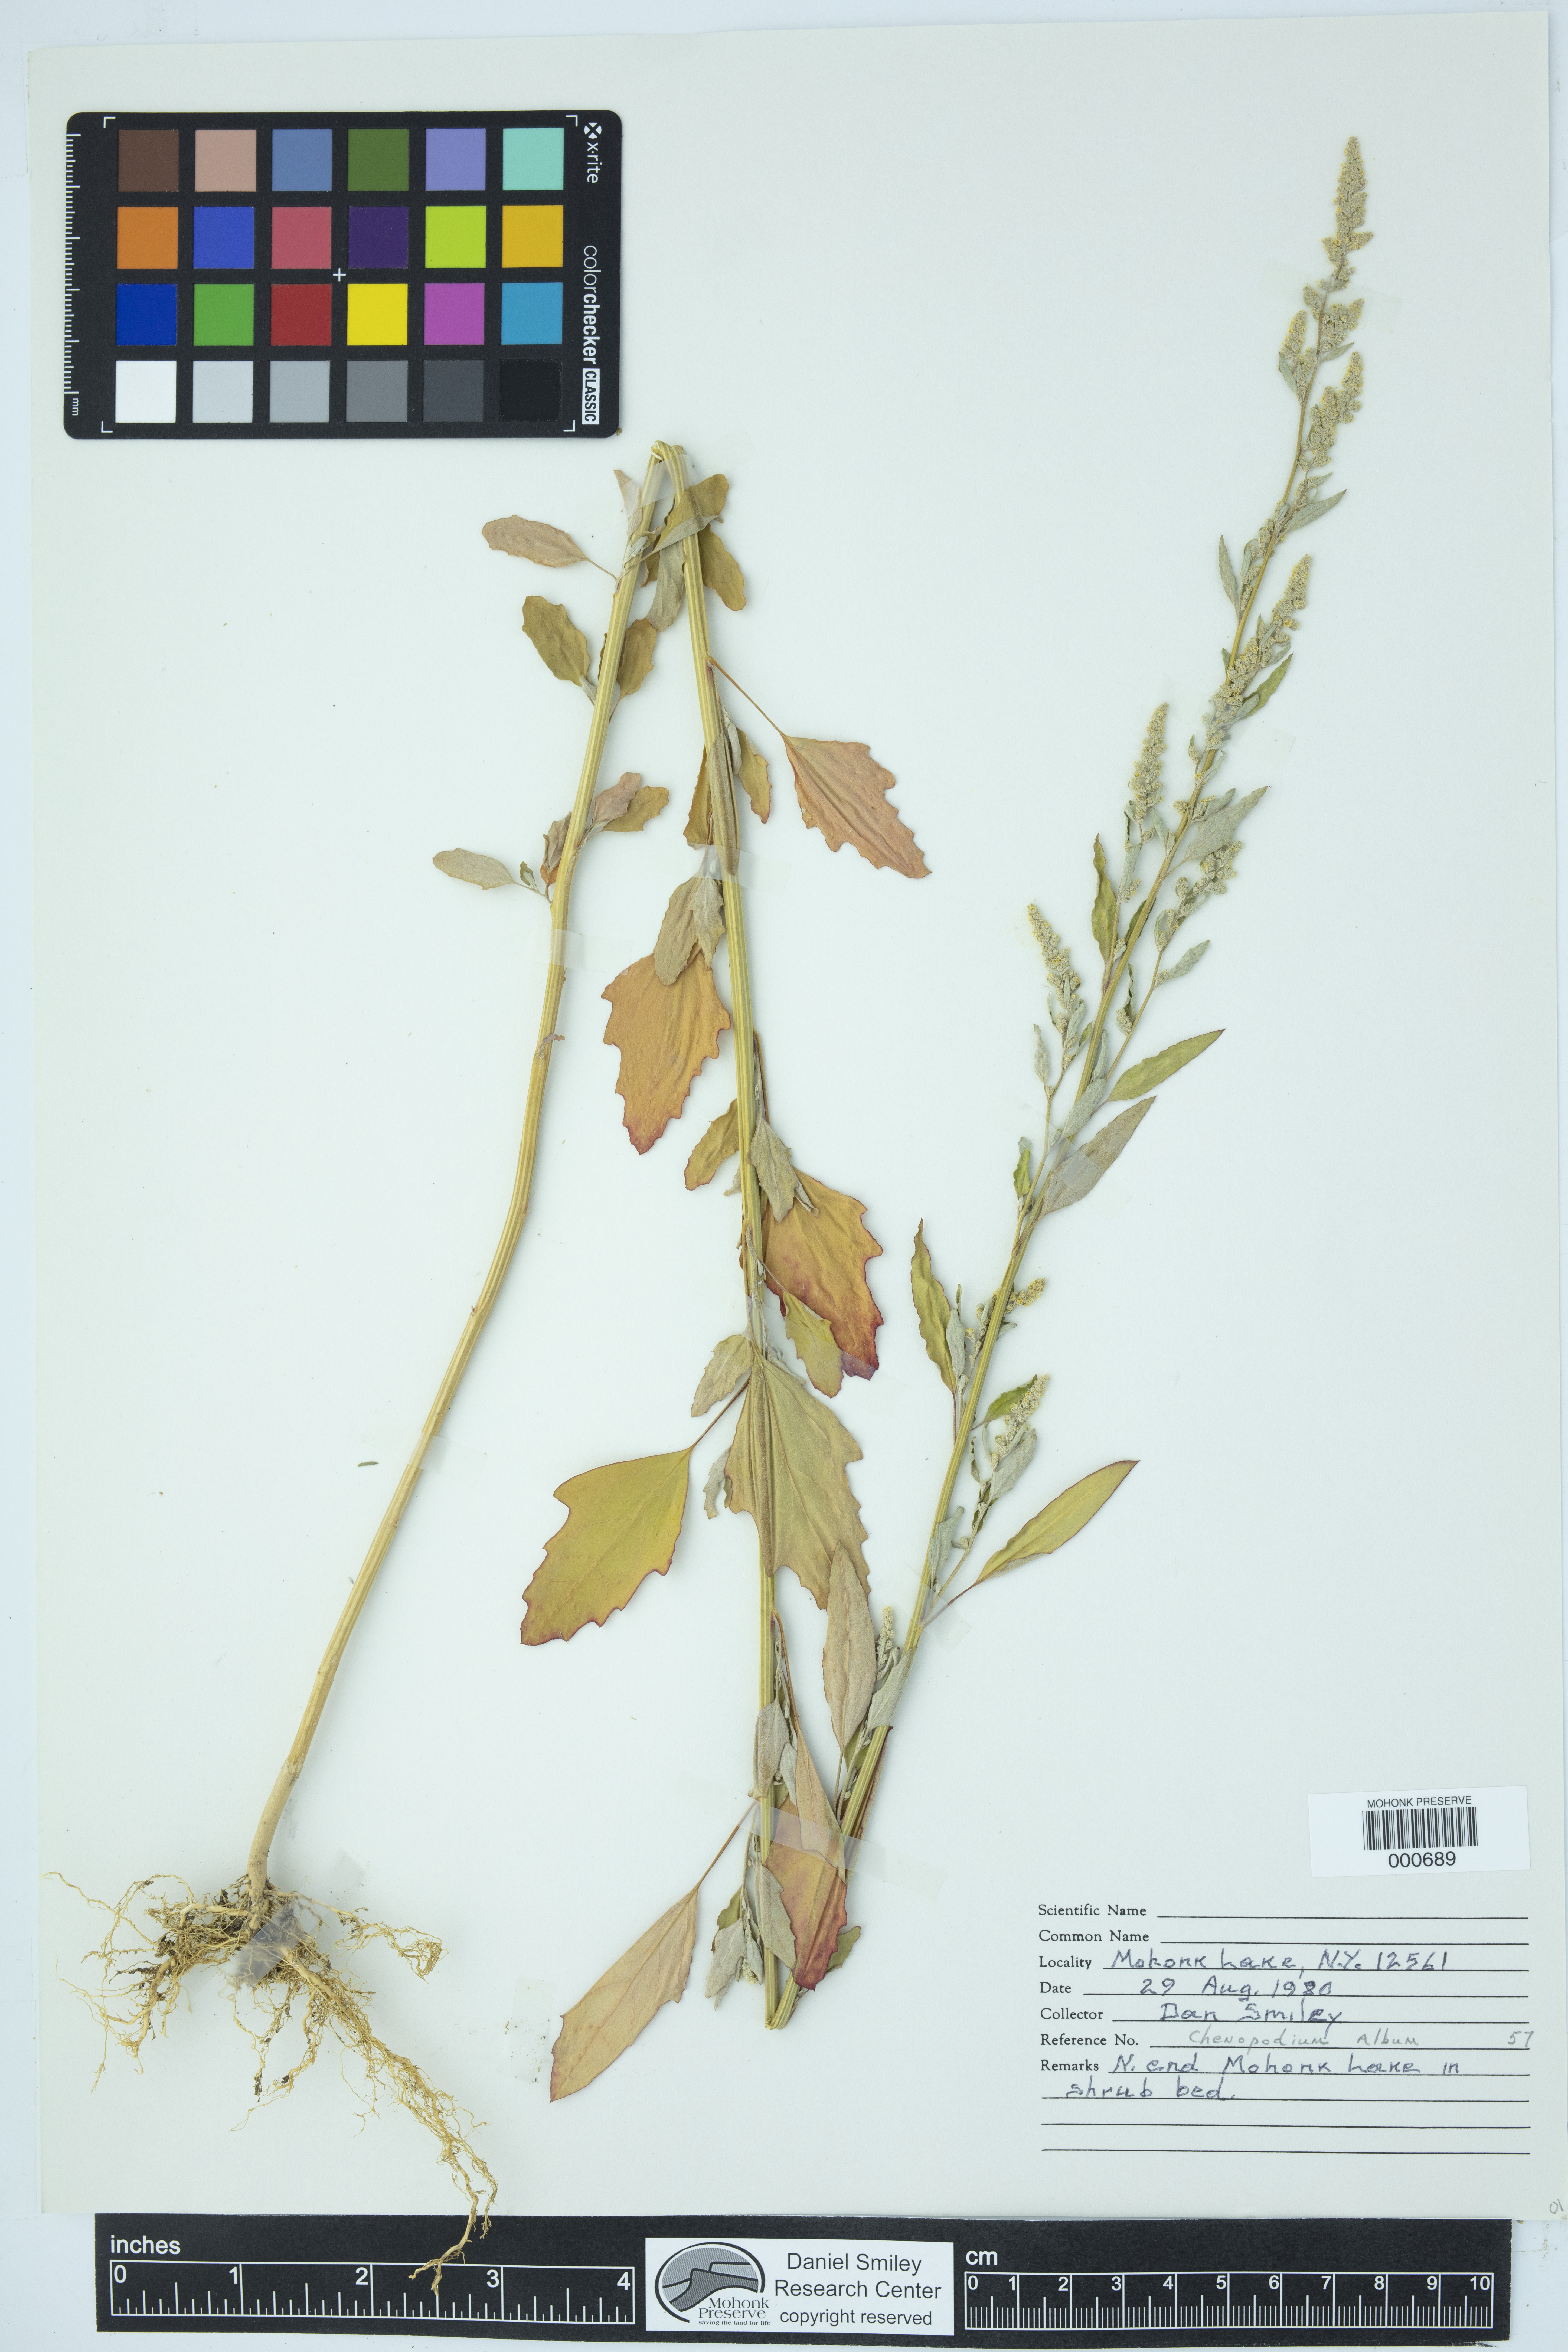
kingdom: Plantae
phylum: Tracheophyta
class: Magnoliopsida
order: Caryophyllales
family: Amaranthaceae
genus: Chenopodium
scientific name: Chenopodium album
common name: Fat-hen
